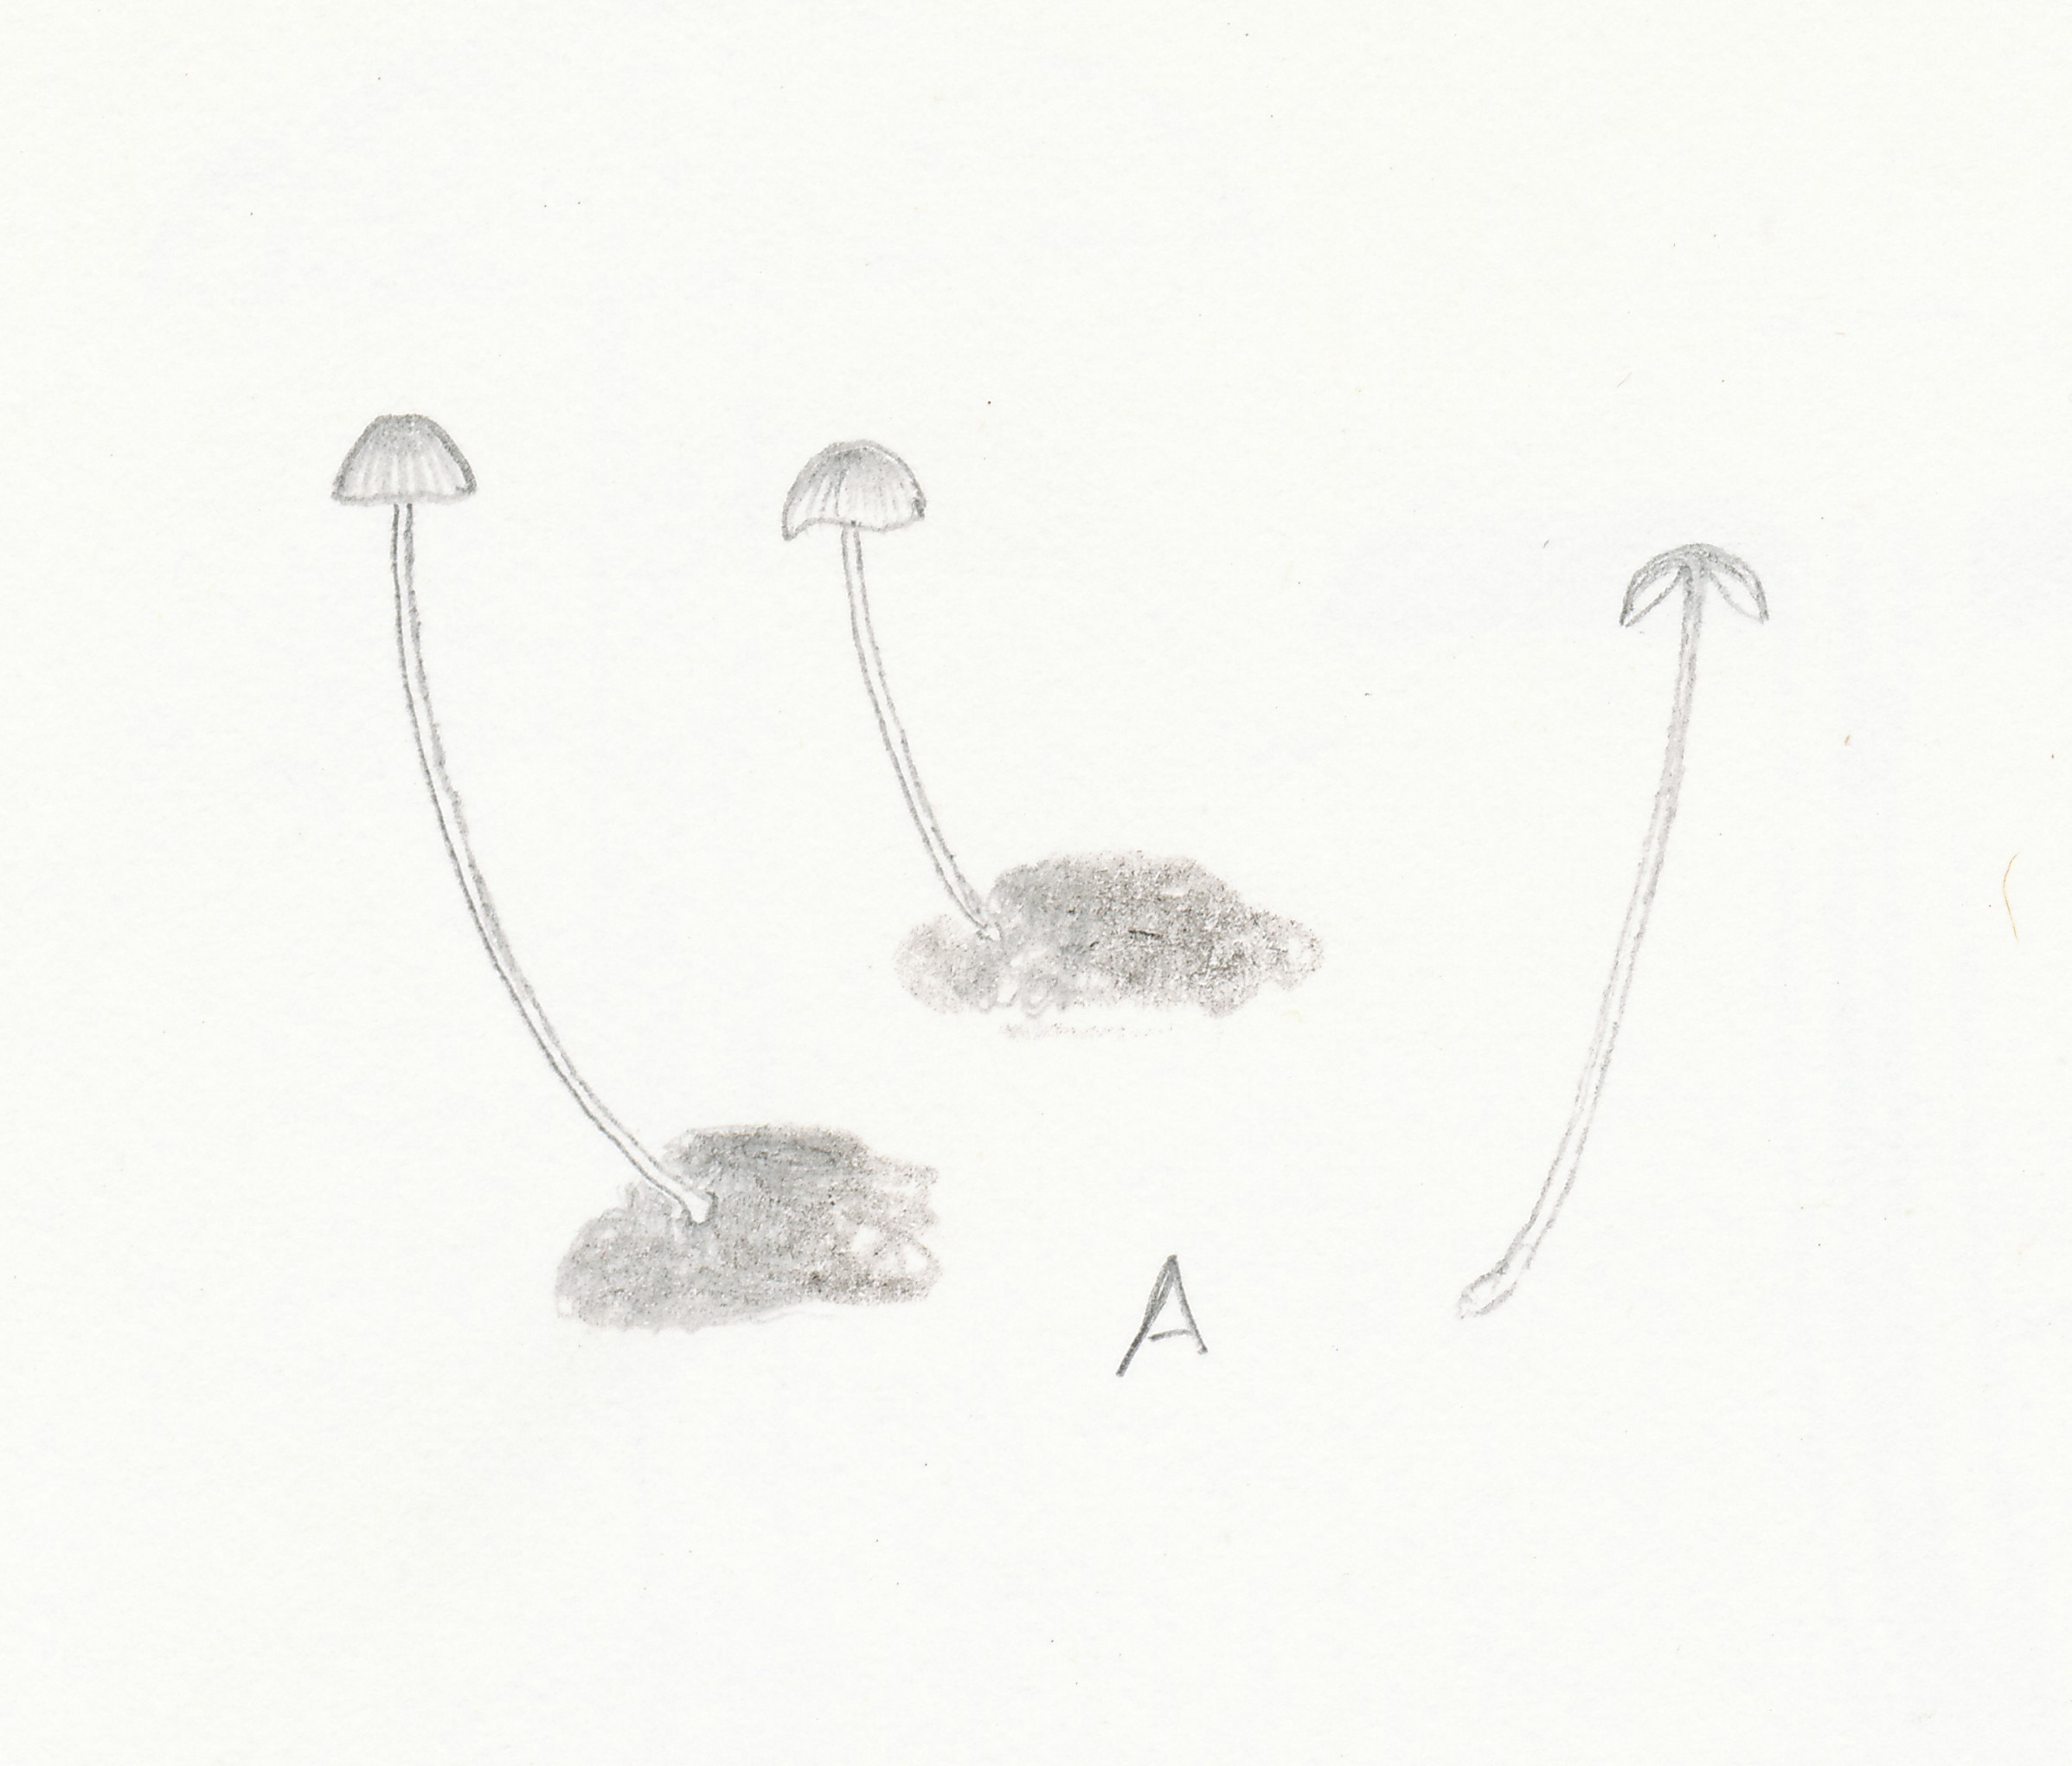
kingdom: Fungi
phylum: Basidiomycota
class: Agaricomycetes
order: Agaricales
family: Mycenaceae
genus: Mycena
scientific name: Mycena acicula
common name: orange huesvamp
